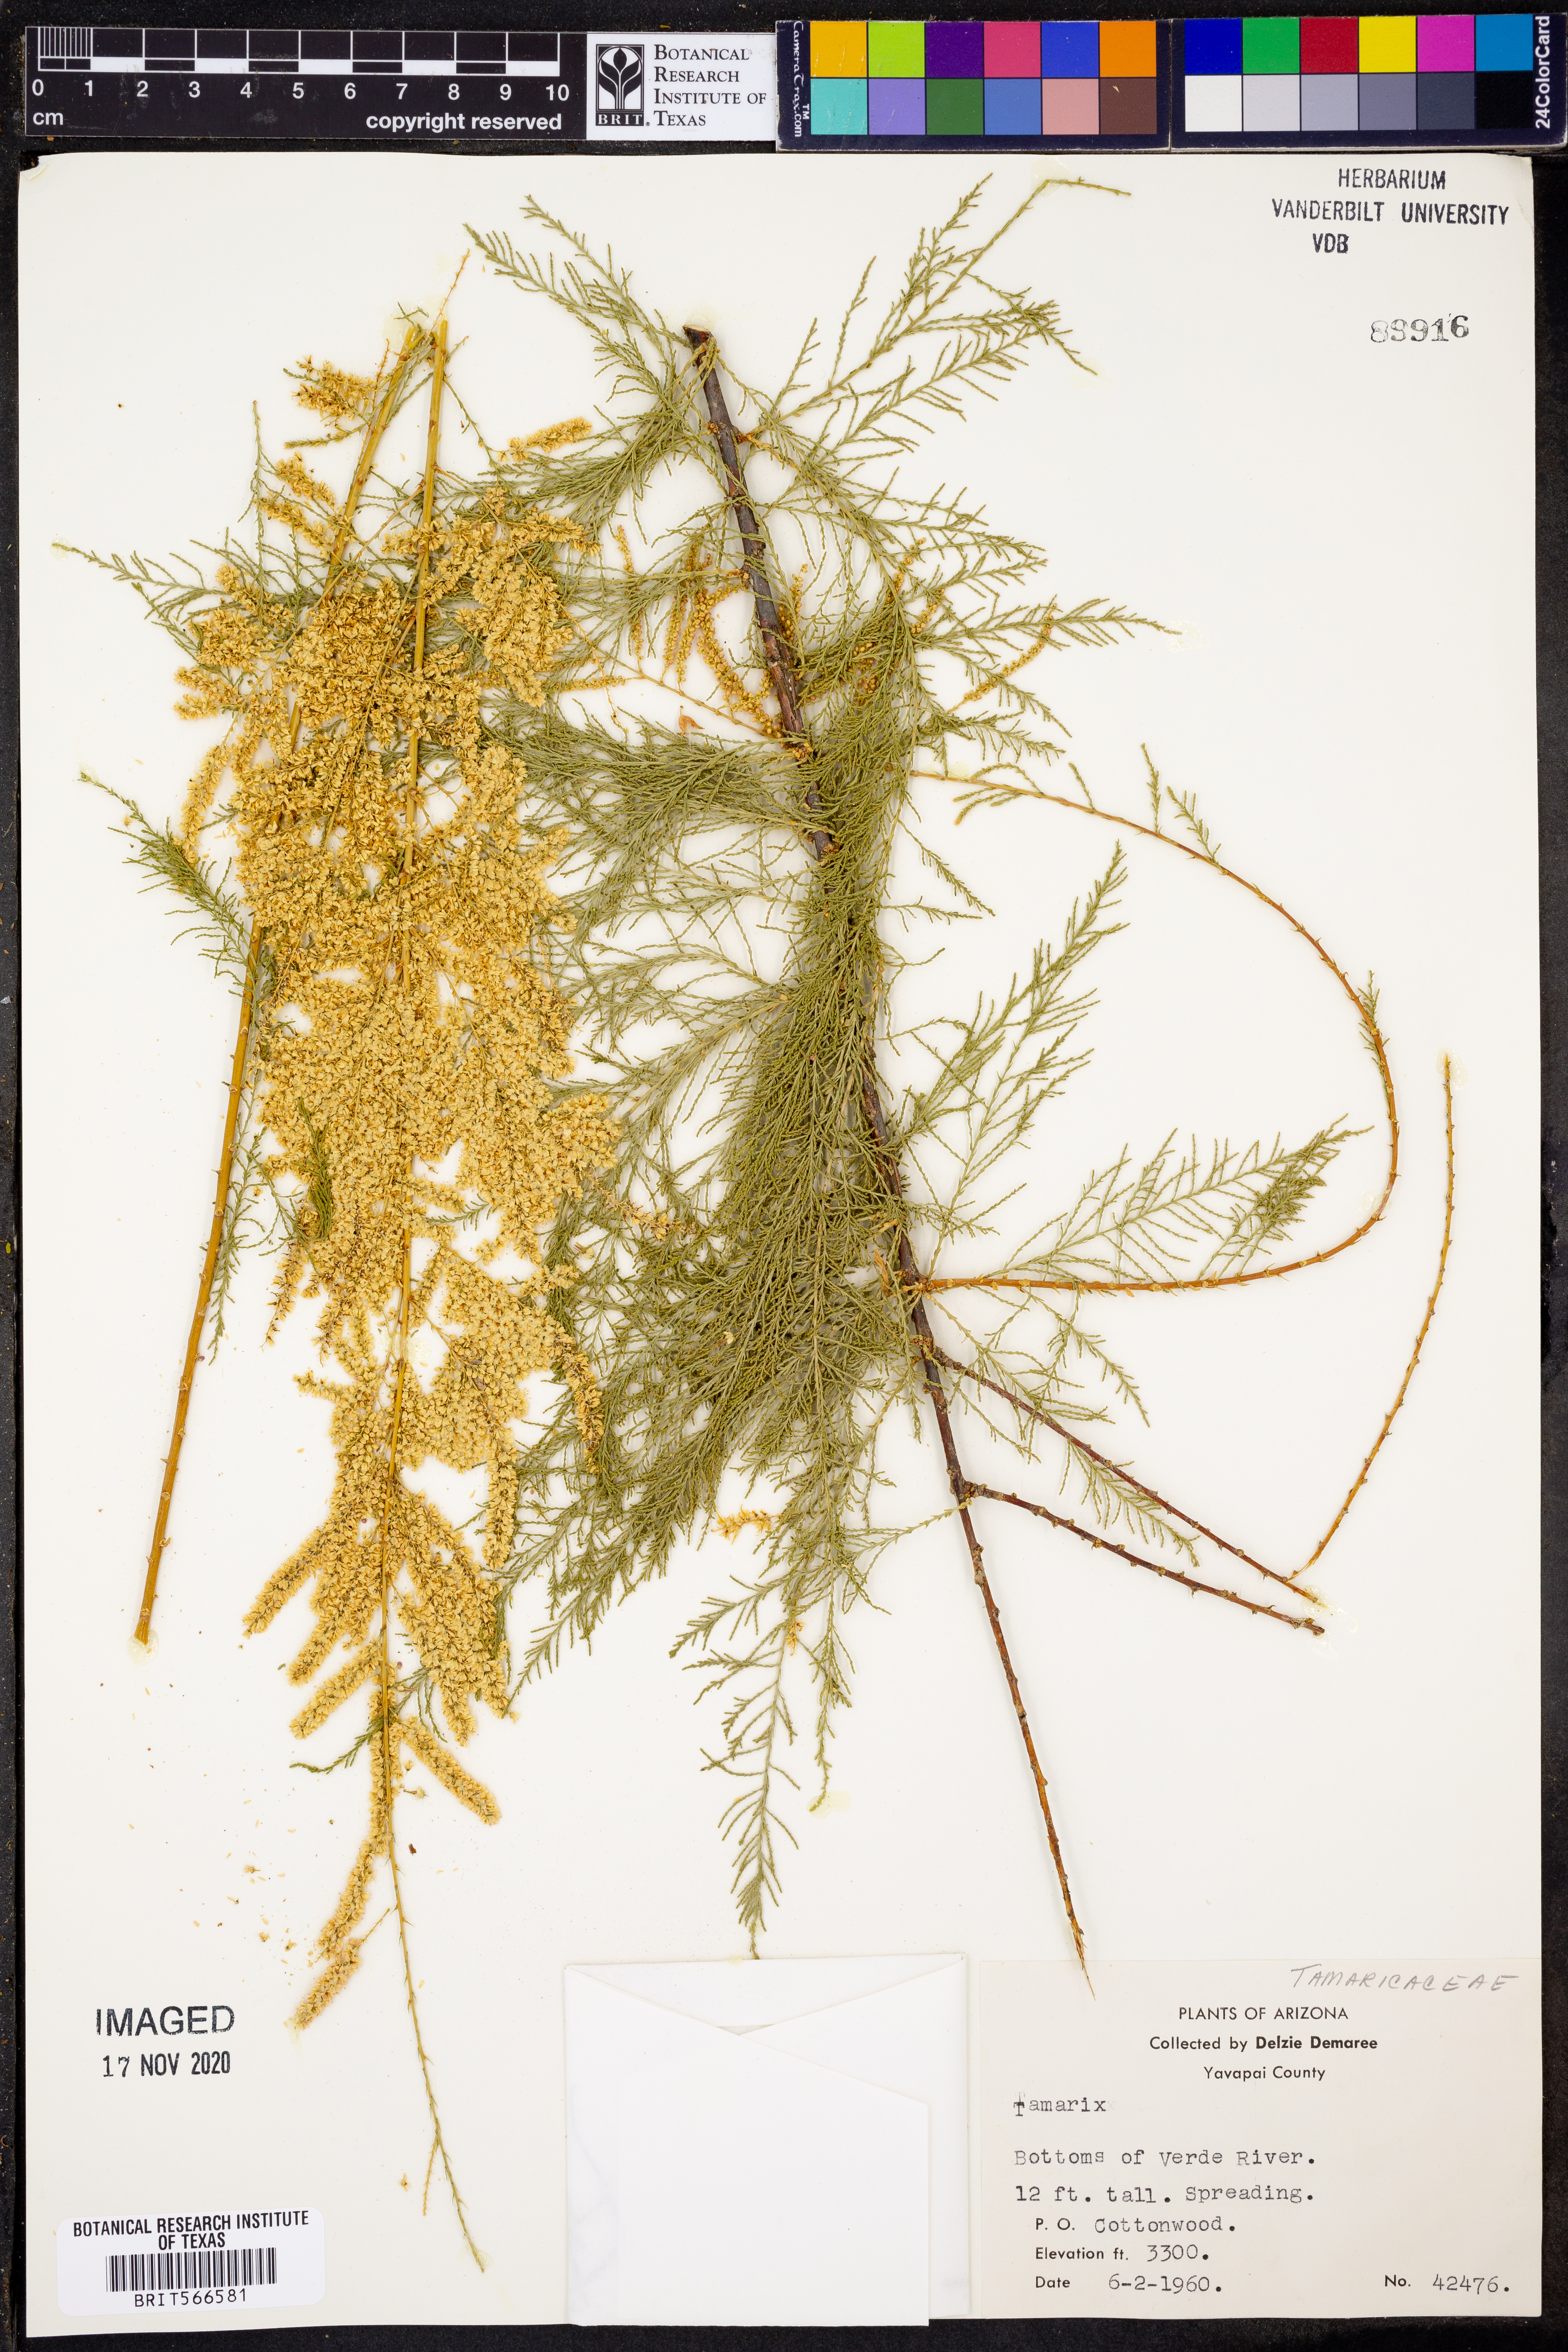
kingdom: Plantae
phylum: Tracheophyta
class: Magnoliopsida
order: Caryophyllales
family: Tamaricaceae
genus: Tamarix
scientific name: Tamarix
